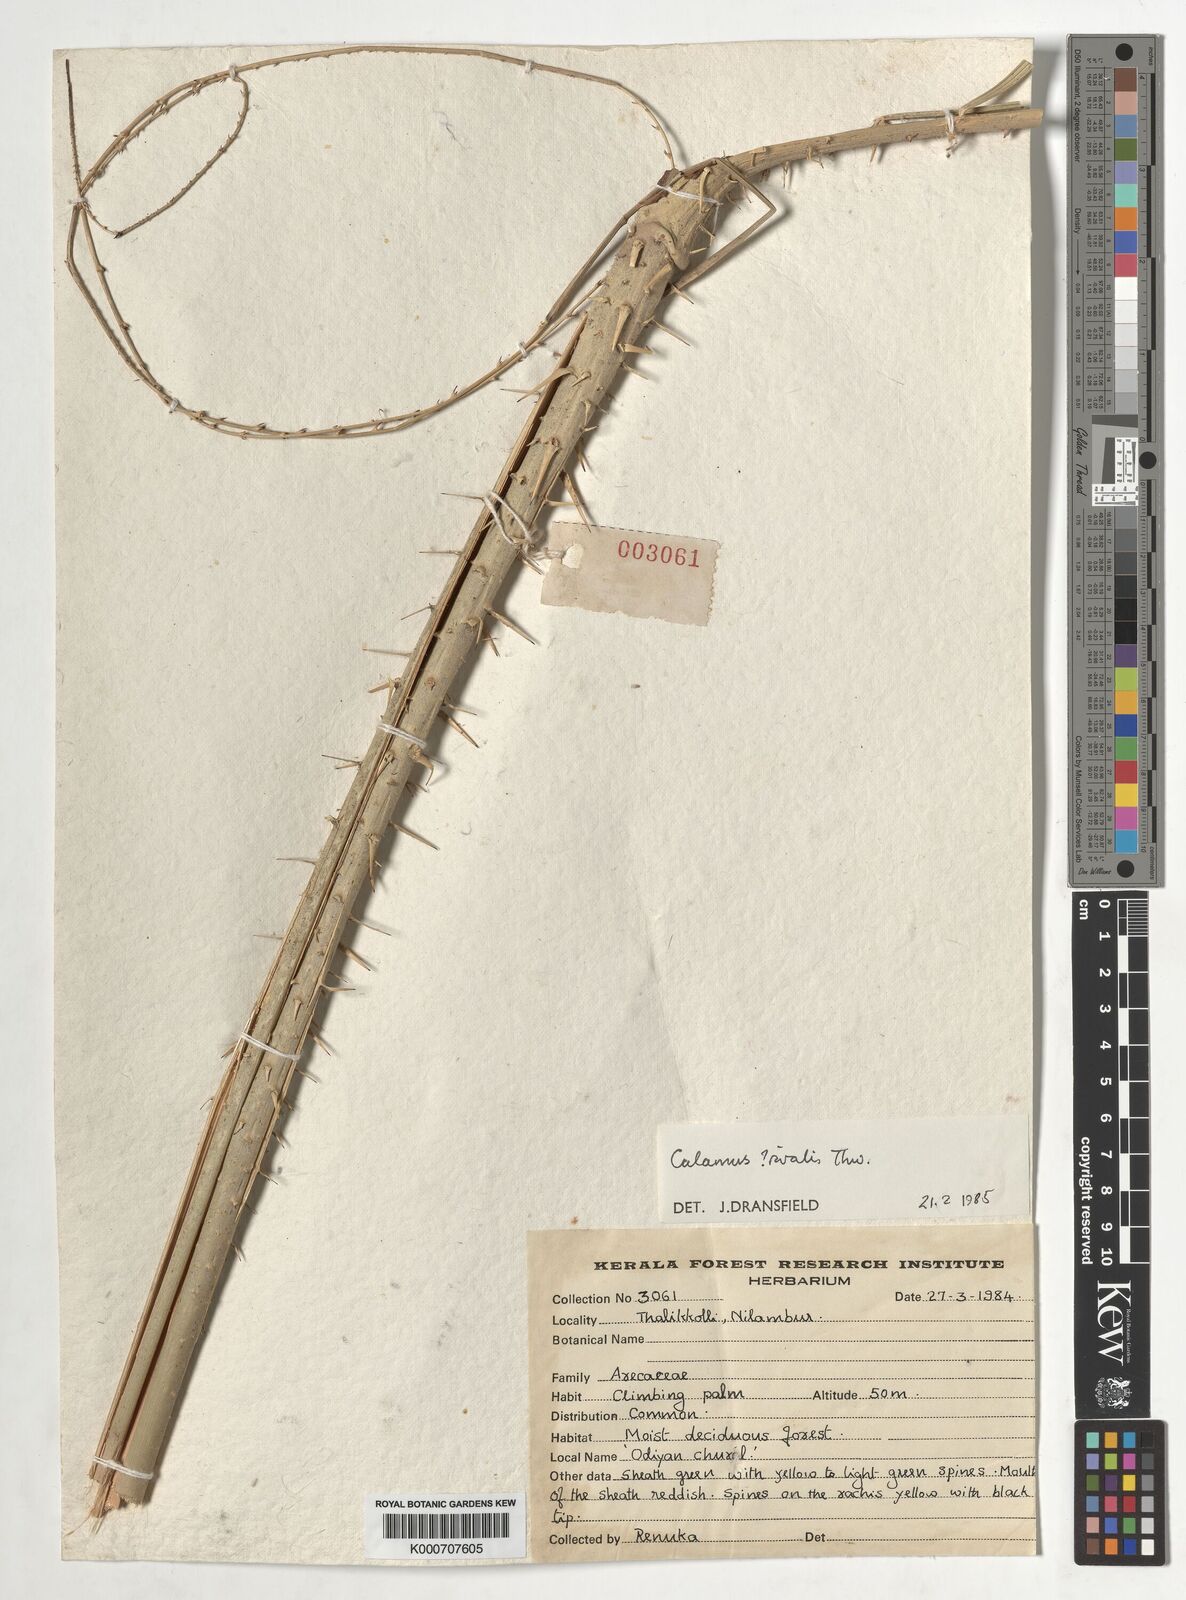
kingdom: Plantae
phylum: Tracheophyta
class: Liliopsida
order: Arecales
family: Arecaceae
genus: Calamus
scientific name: Calamus metzianus
